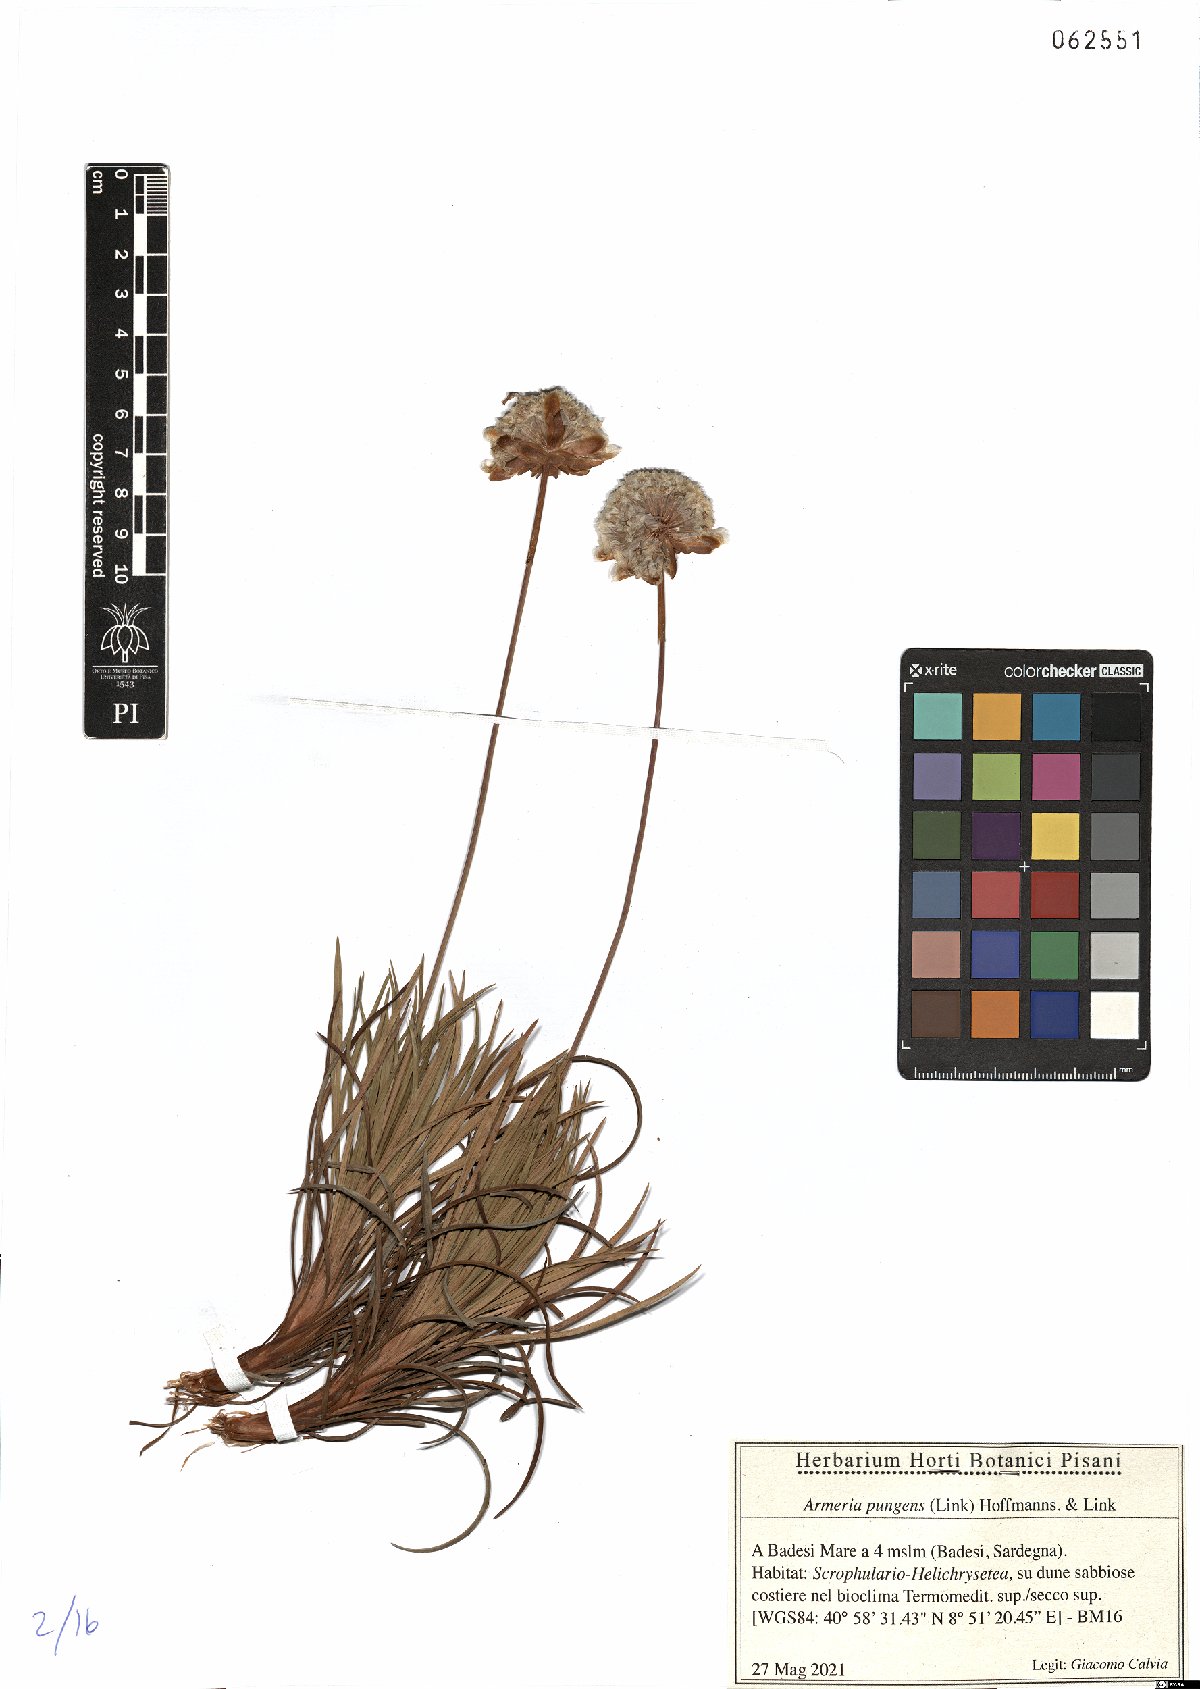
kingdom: Plantae
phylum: Tracheophyta
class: Magnoliopsida
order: Caryophyllales
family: Plumbaginaceae
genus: Armeria
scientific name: Armeria pungens
